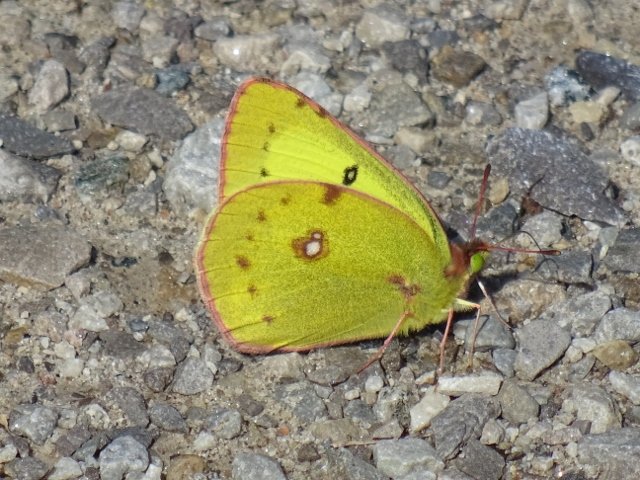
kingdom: Animalia
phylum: Arthropoda
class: Insecta
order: Lepidoptera
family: Pieridae
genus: Colias
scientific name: Colias philodice
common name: Clouded Sulphur
